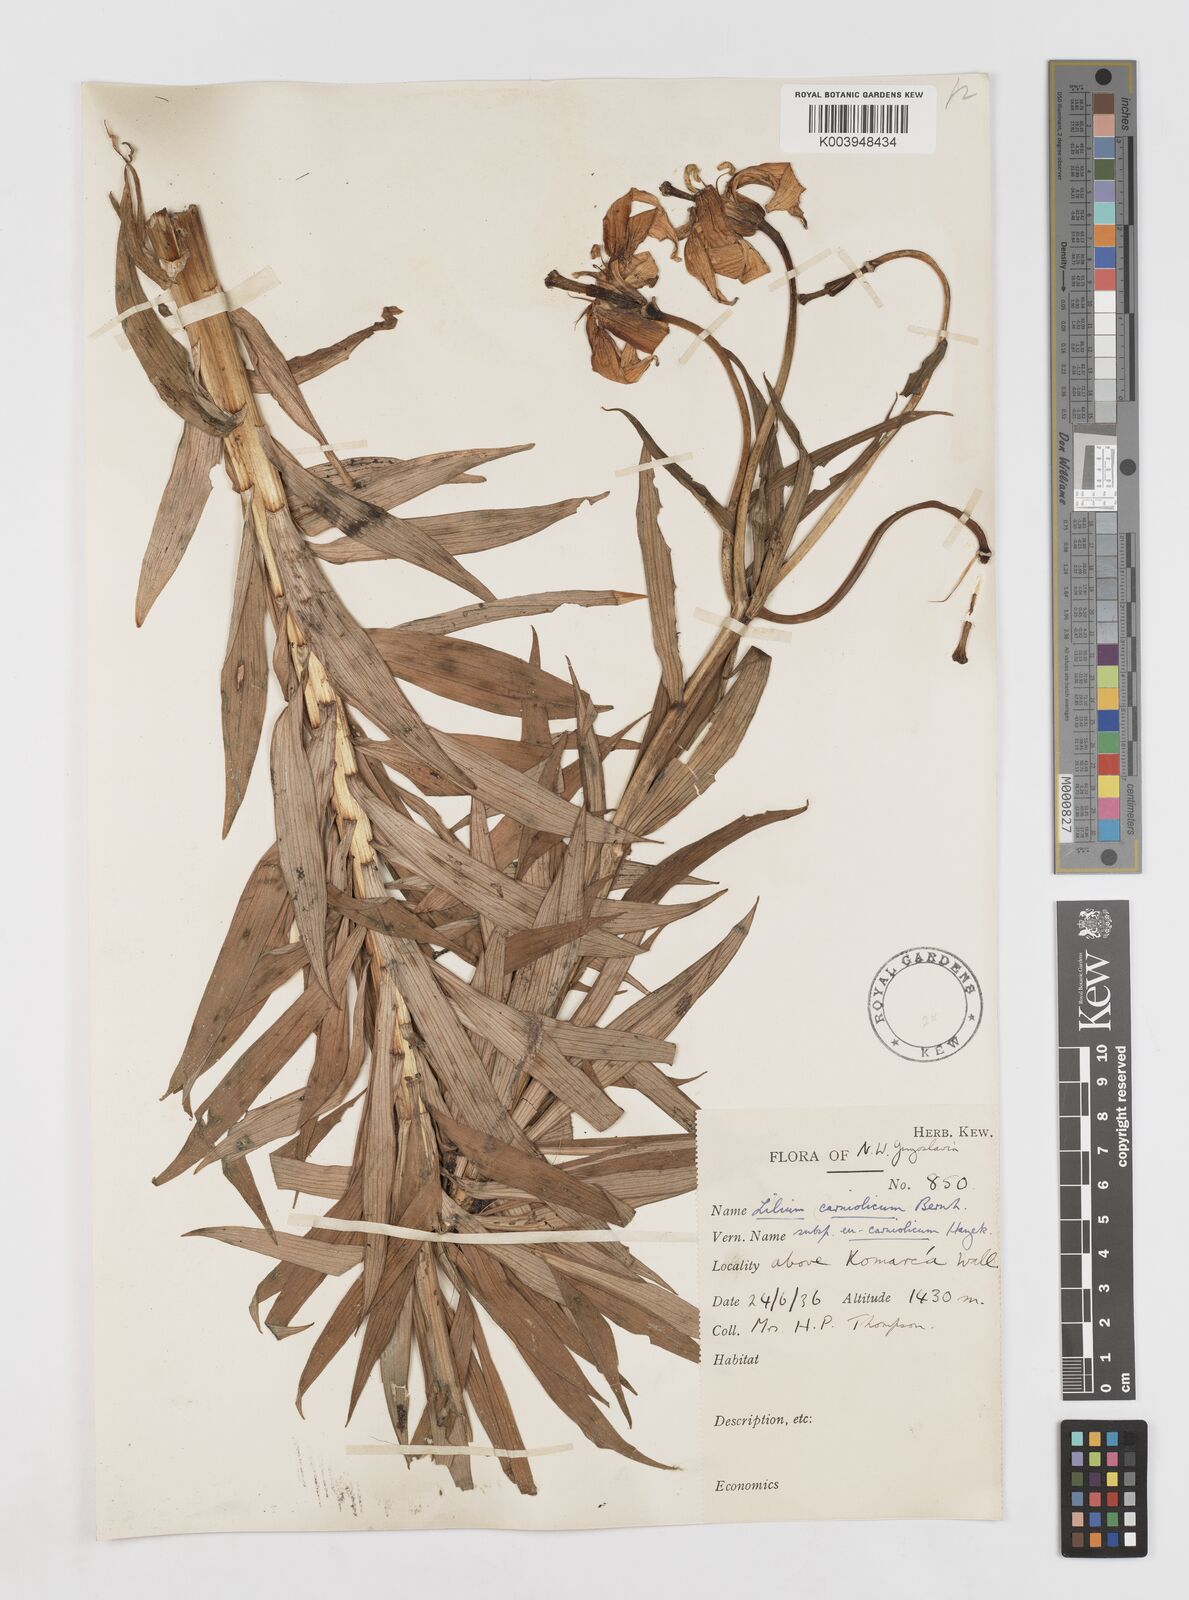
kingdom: Plantae
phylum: Tracheophyta
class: Liliopsida
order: Liliales
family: Liliaceae
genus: Lilium
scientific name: Lilium carniolicum
